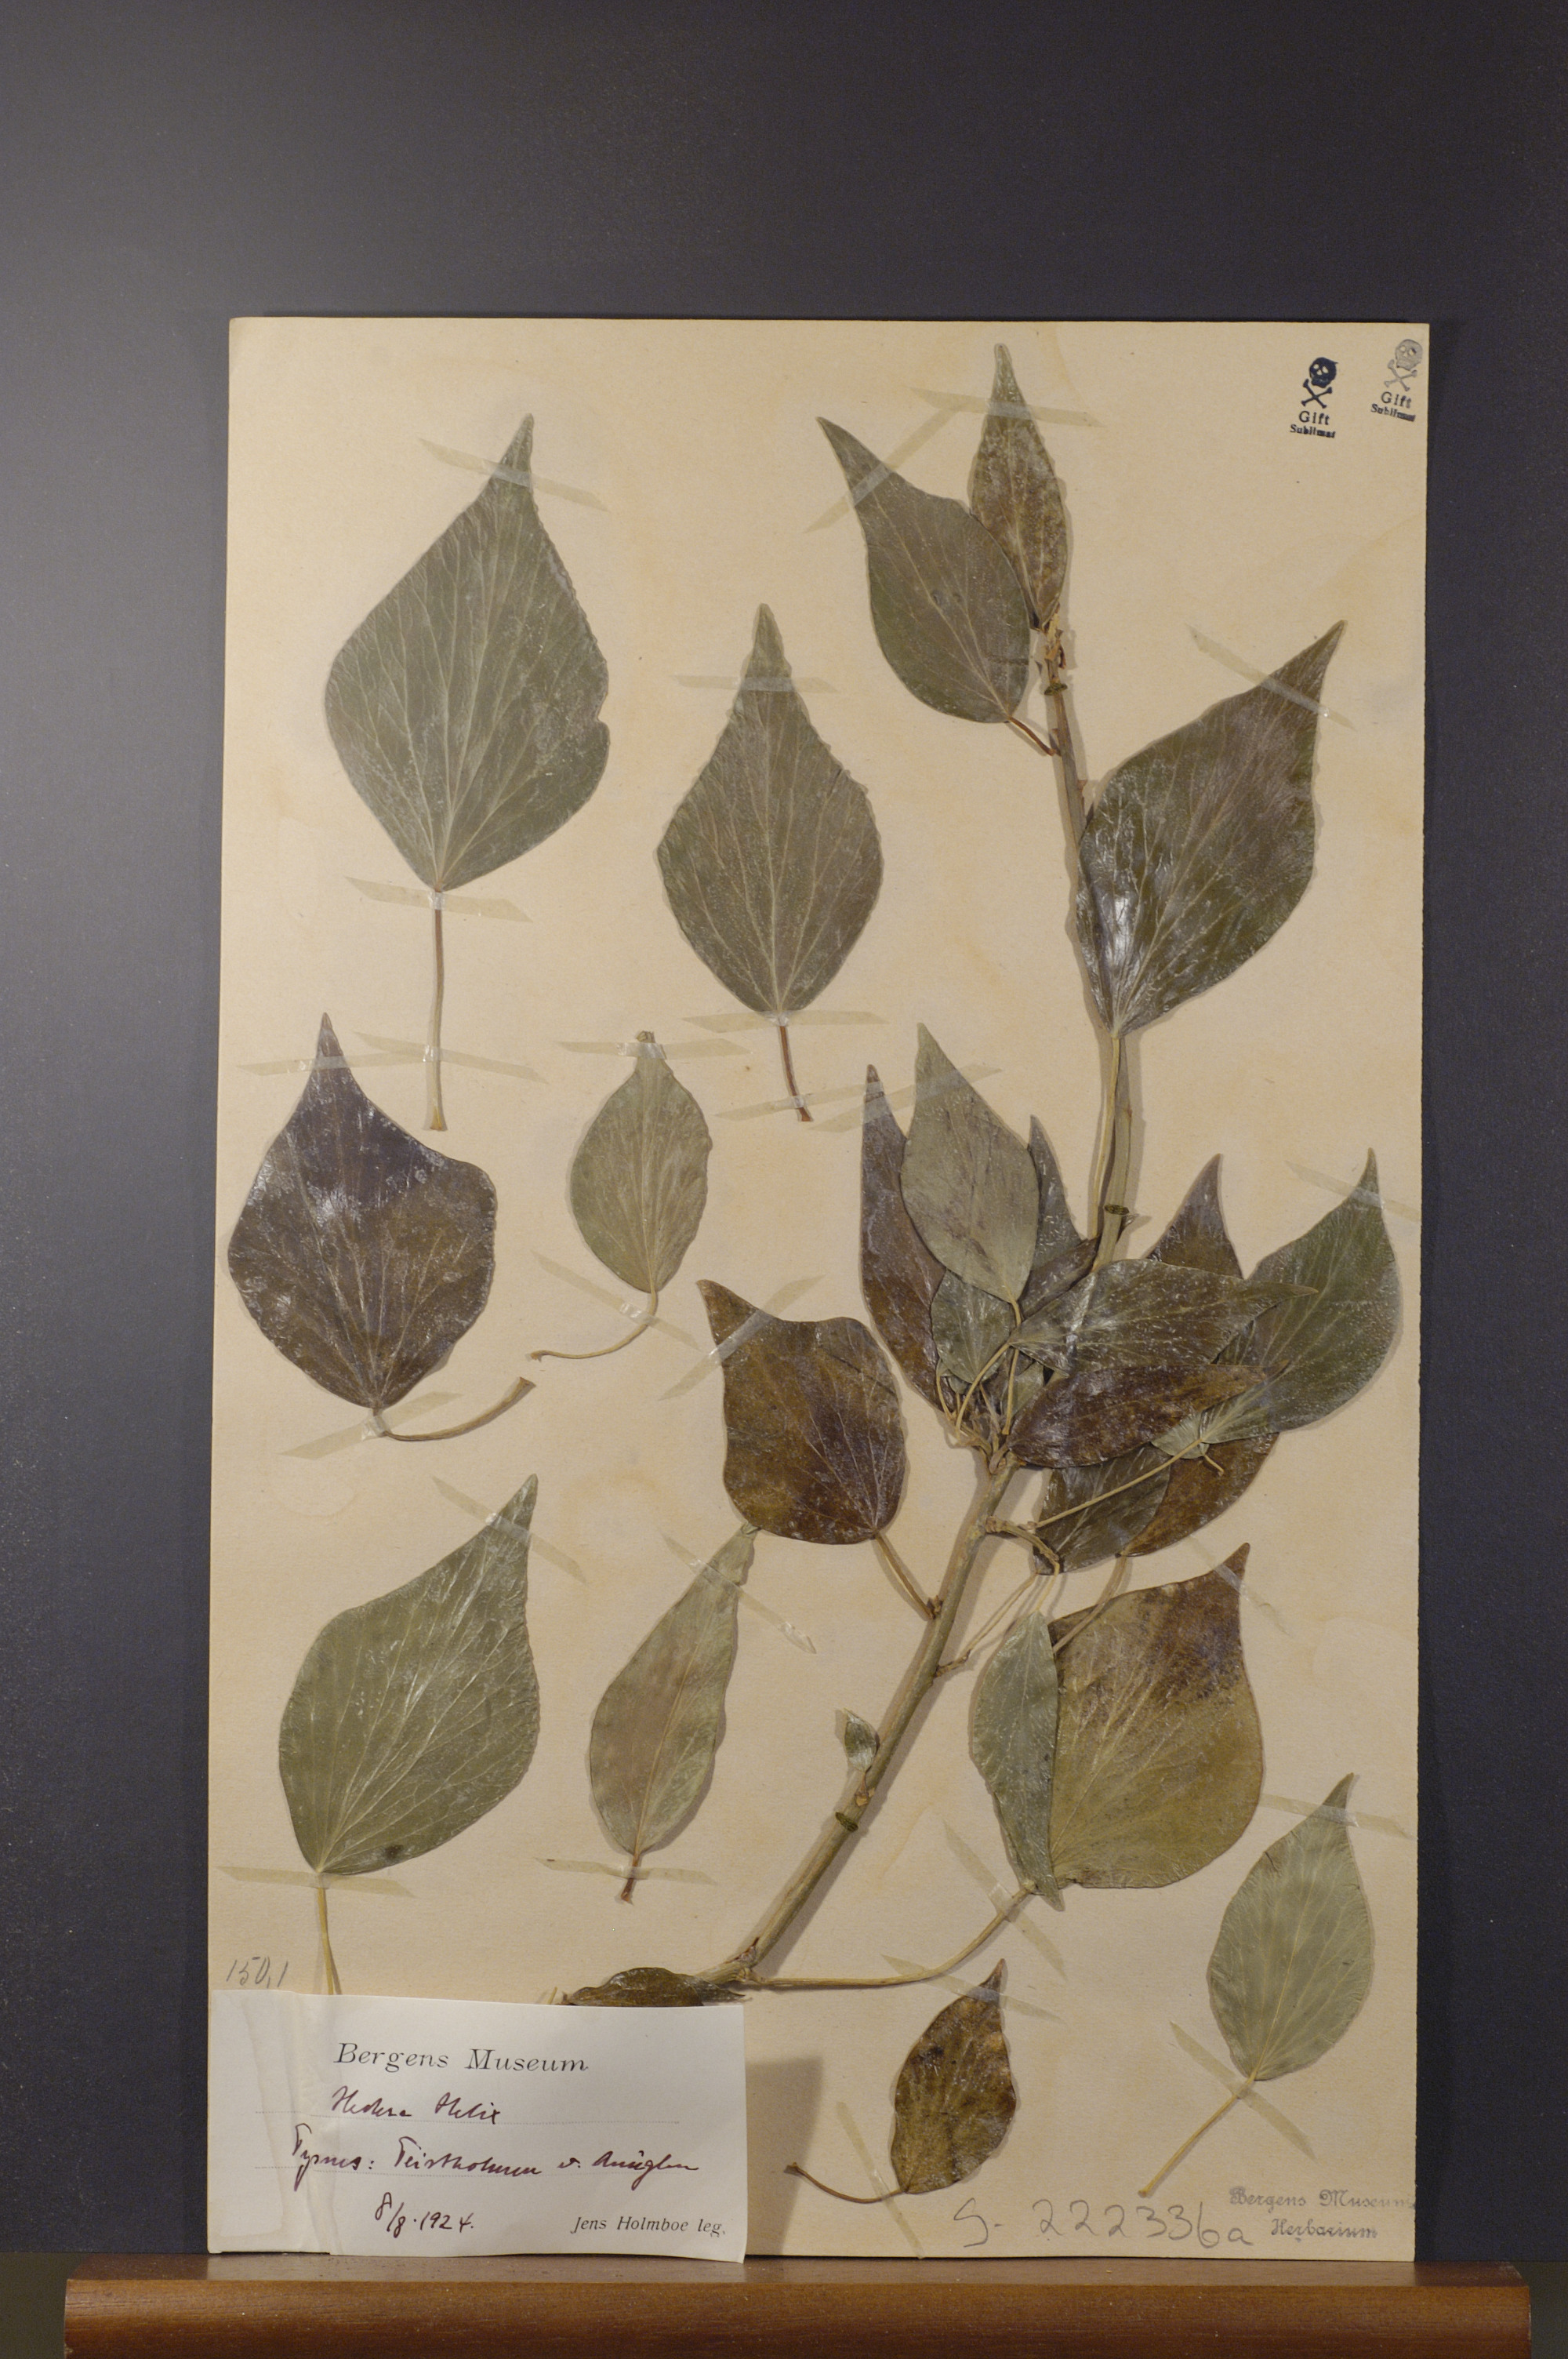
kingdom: Plantae
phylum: Tracheophyta
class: Magnoliopsida
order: Apiales
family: Araliaceae
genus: Hedera
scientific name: Hedera helix
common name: Ivy
